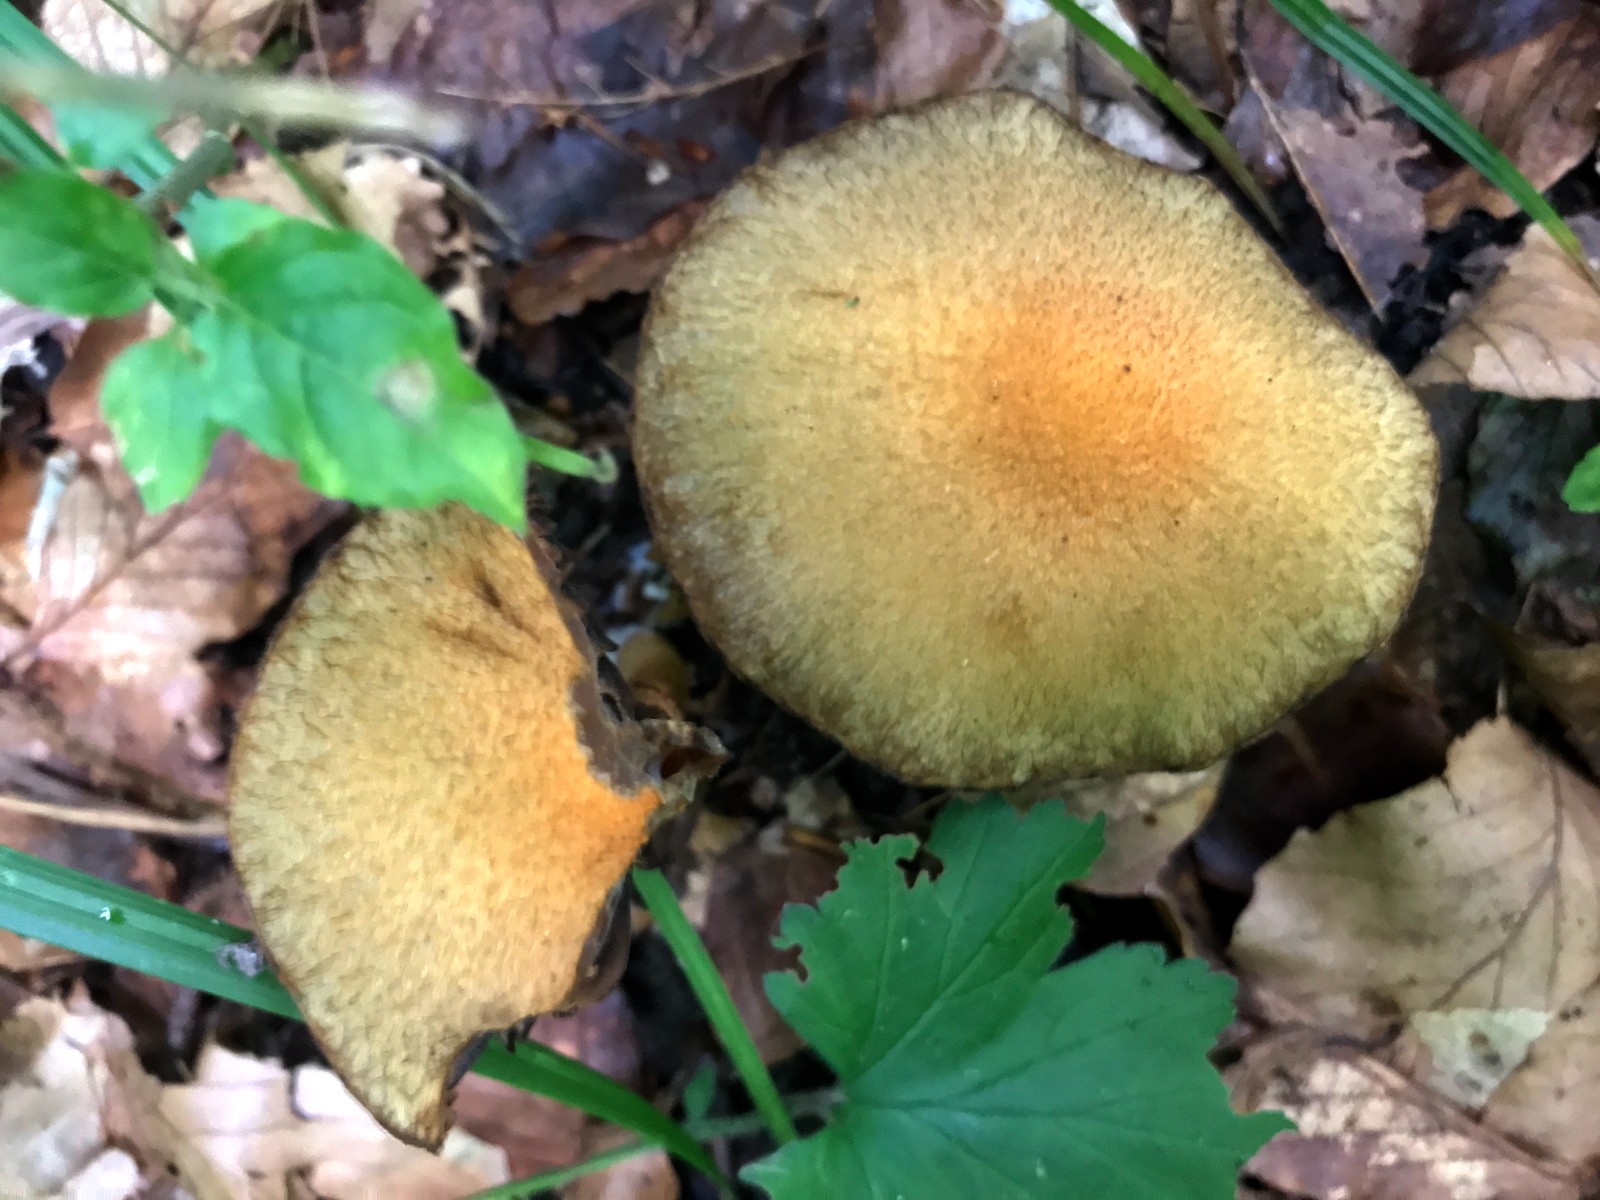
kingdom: Fungi
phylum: Basidiomycota
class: Agaricomycetes
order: Agaricales
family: Psathyrellaceae
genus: Lacrymaria
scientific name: Lacrymaria lacrymabunda
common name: grædende mørkhat
